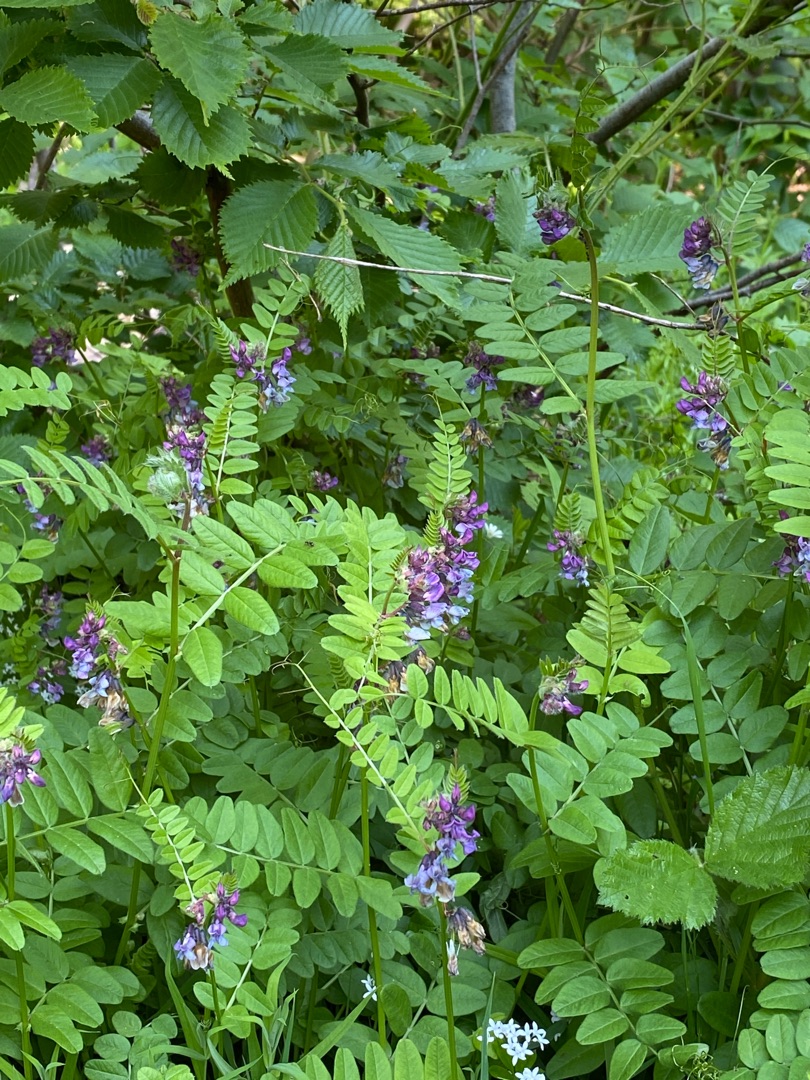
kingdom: Plantae
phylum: Tracheophyta
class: Magnoliopsida
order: Fabales
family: Fabaceae
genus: Vicia
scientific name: Vicia sepium
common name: Gærde-vikke
